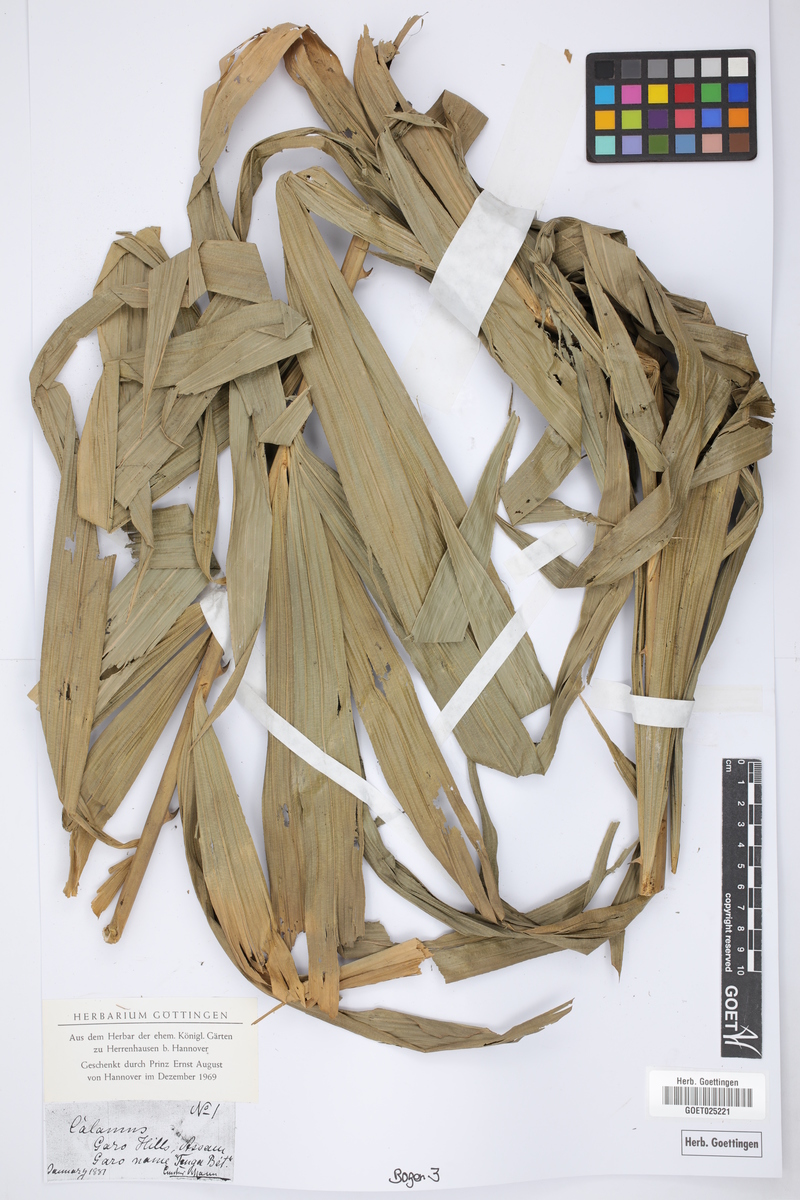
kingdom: Plantae
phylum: Tracheophyta
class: Liliopsida
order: Arecales
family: Arecaceae
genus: Calamus
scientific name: Calamus
